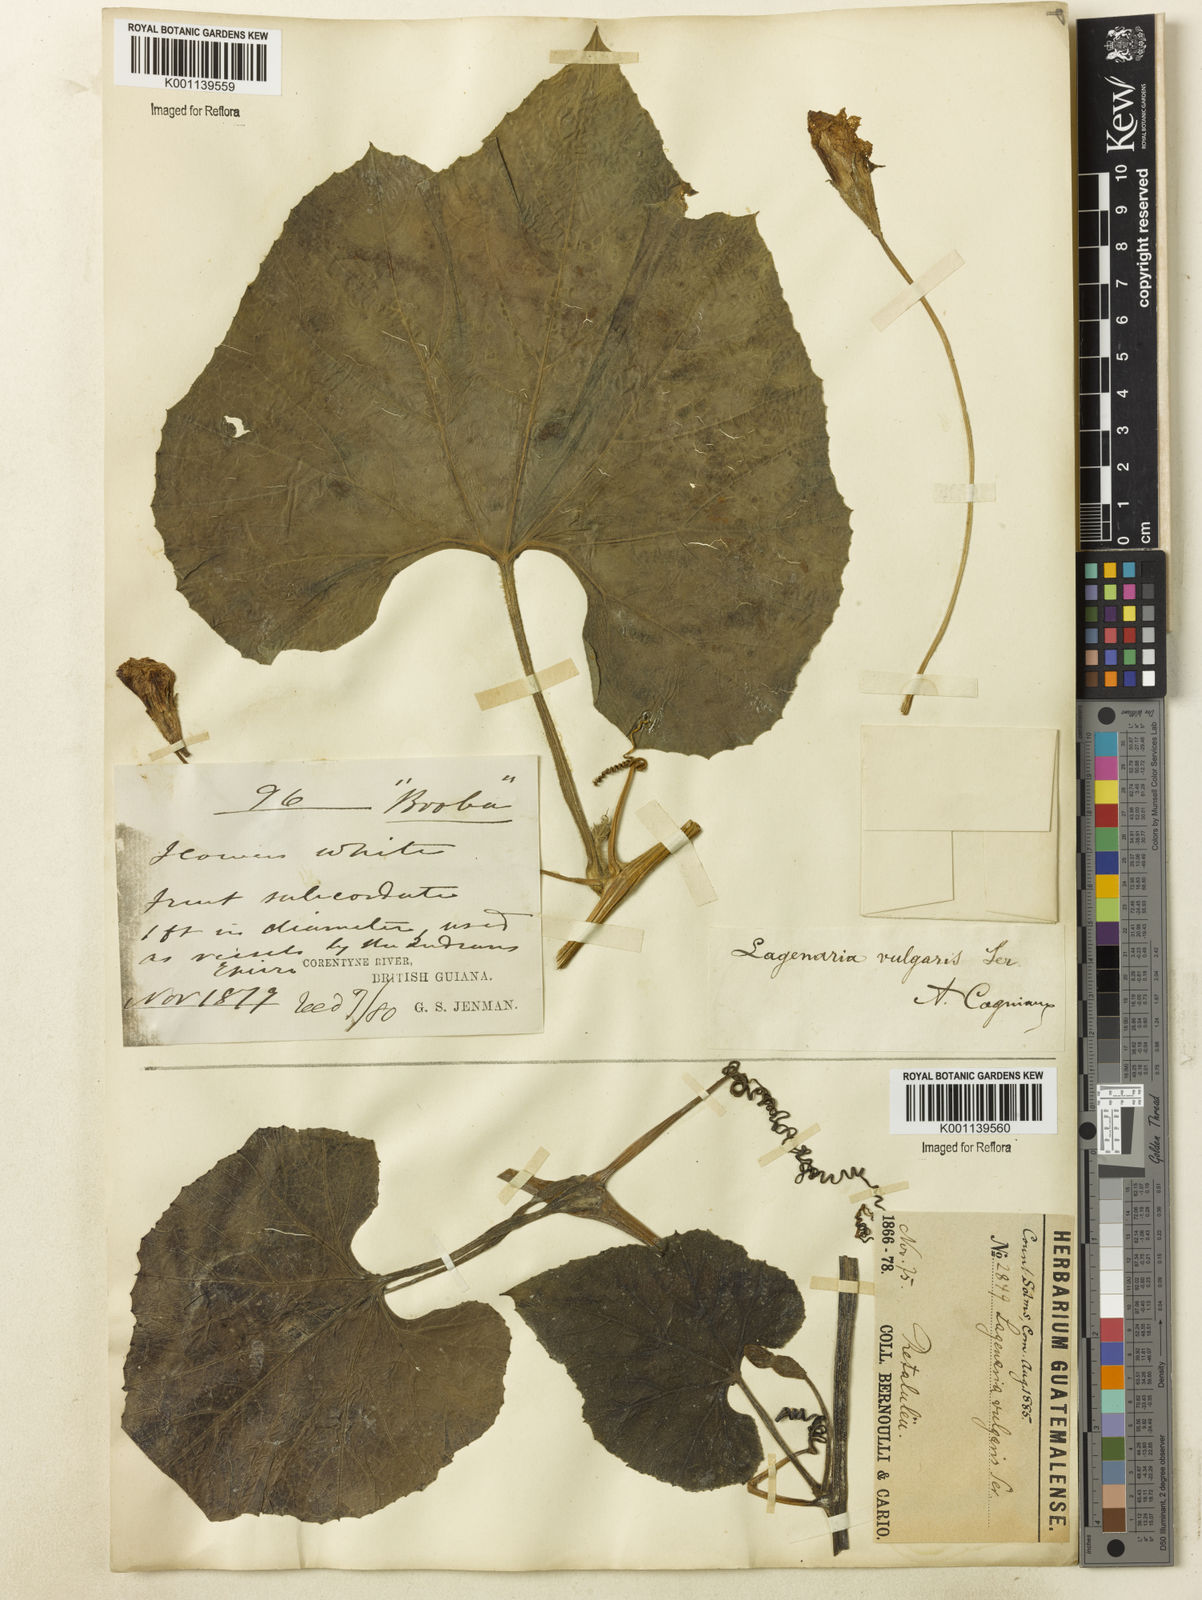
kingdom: Plantae
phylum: Tracheophyta
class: Magnoliopsida
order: Cucurbitales
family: Cucurbitaceae
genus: Lagenaria
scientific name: Lagenaria siceraria
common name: Bottle gourd
